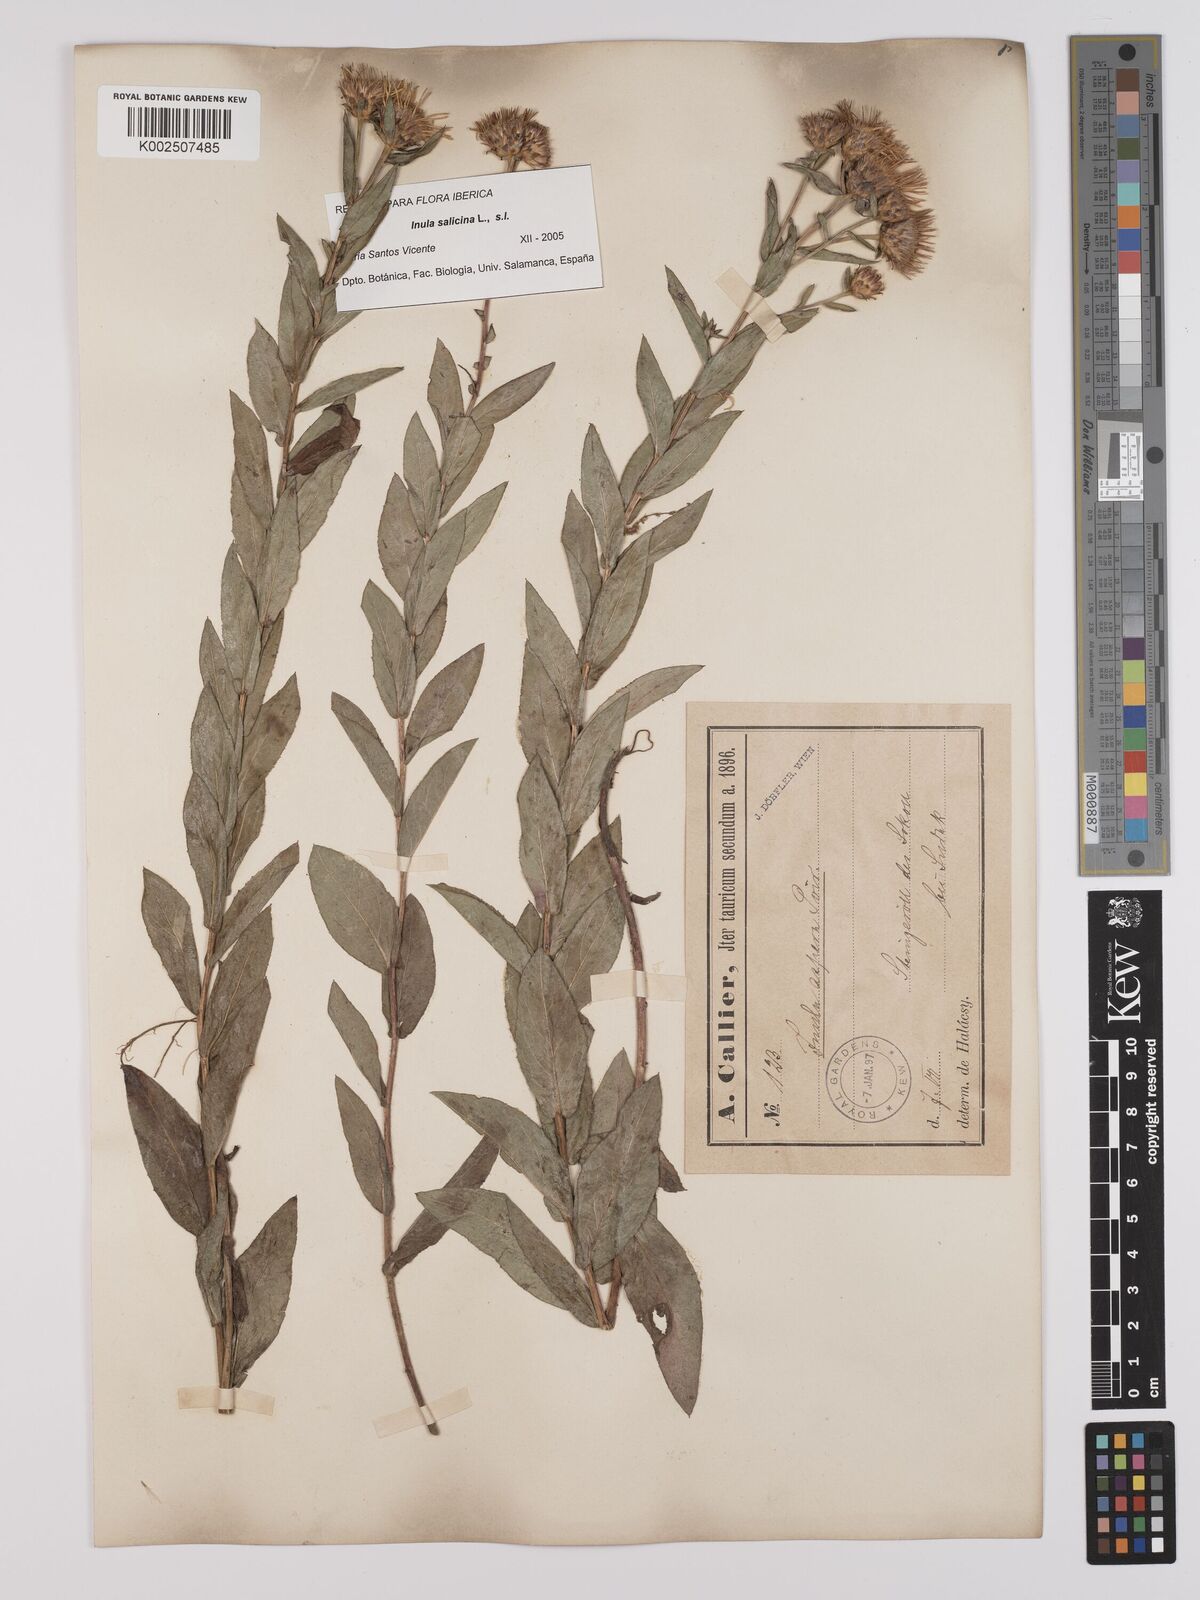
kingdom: Plantae
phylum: Tracheophyta
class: Magnoliopsida
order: Asterales
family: Asteraceae
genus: Pentanema
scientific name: Pentanema salicinum
